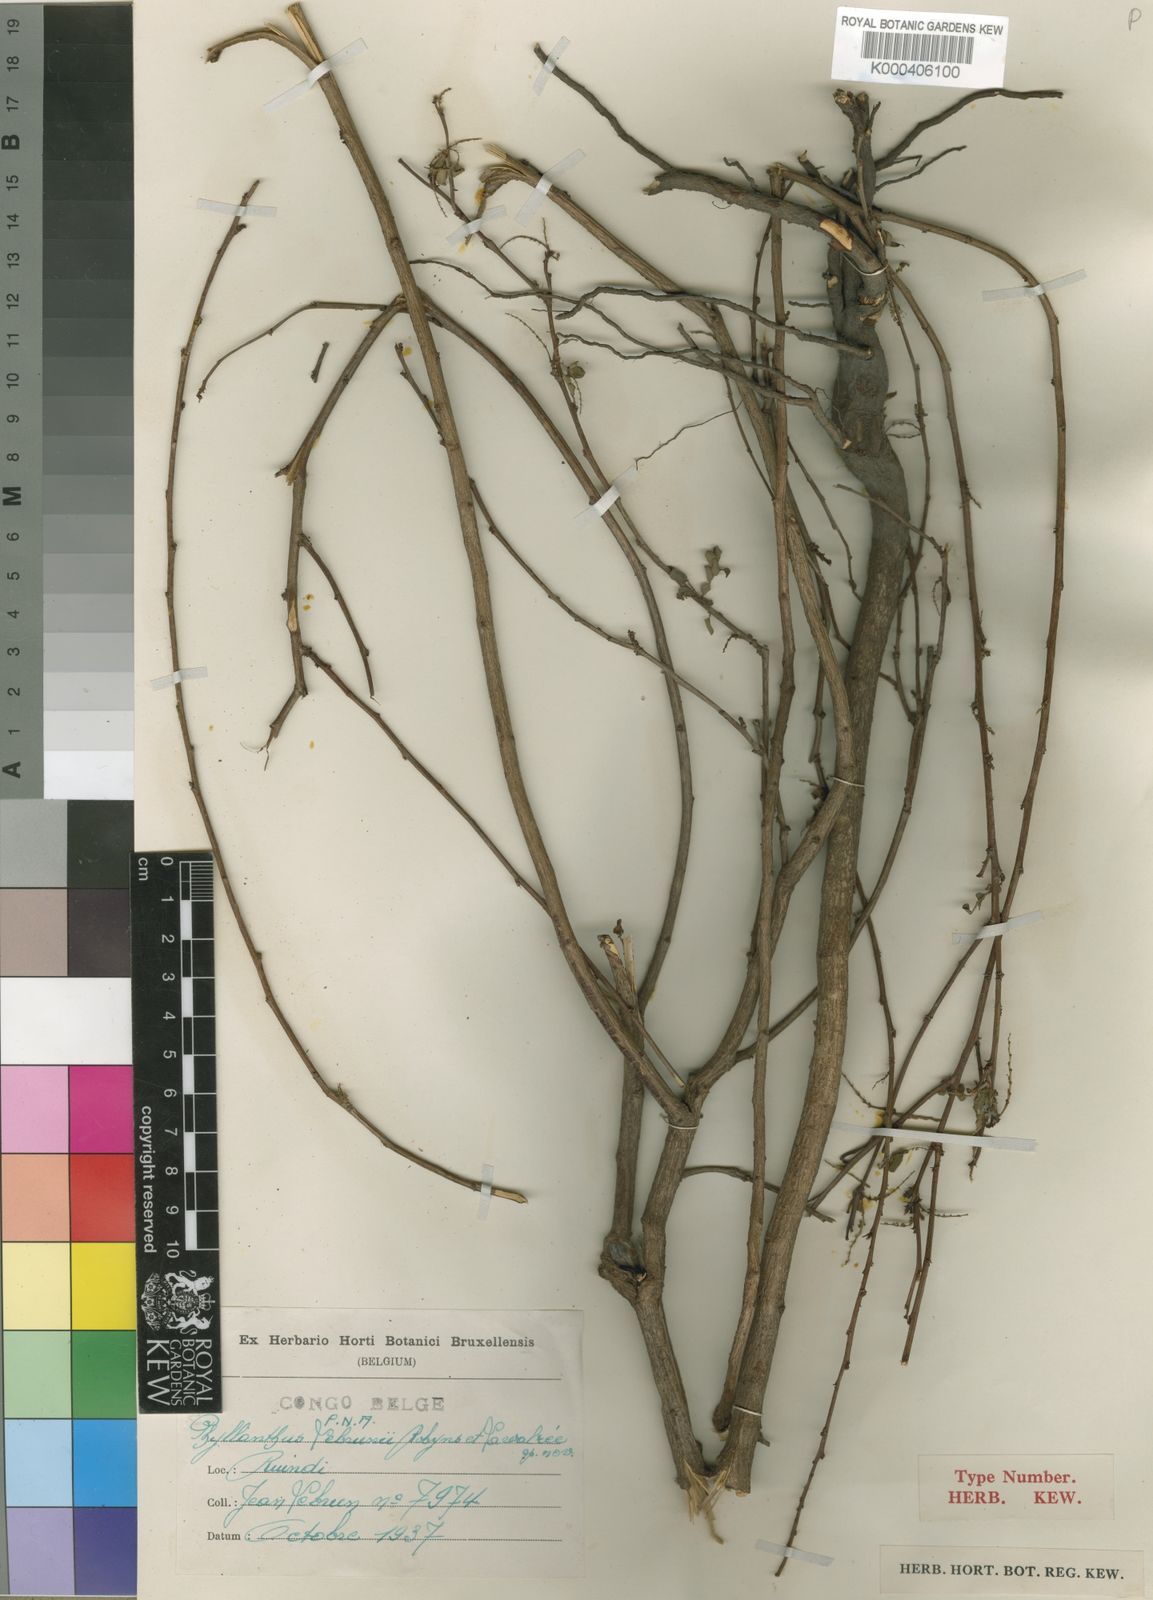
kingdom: Plantae
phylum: Tracheophyta
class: Magnoliopsida
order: Malpighiales
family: Phyllanthaceae
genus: Phyllanthus
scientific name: Phyllanthus
